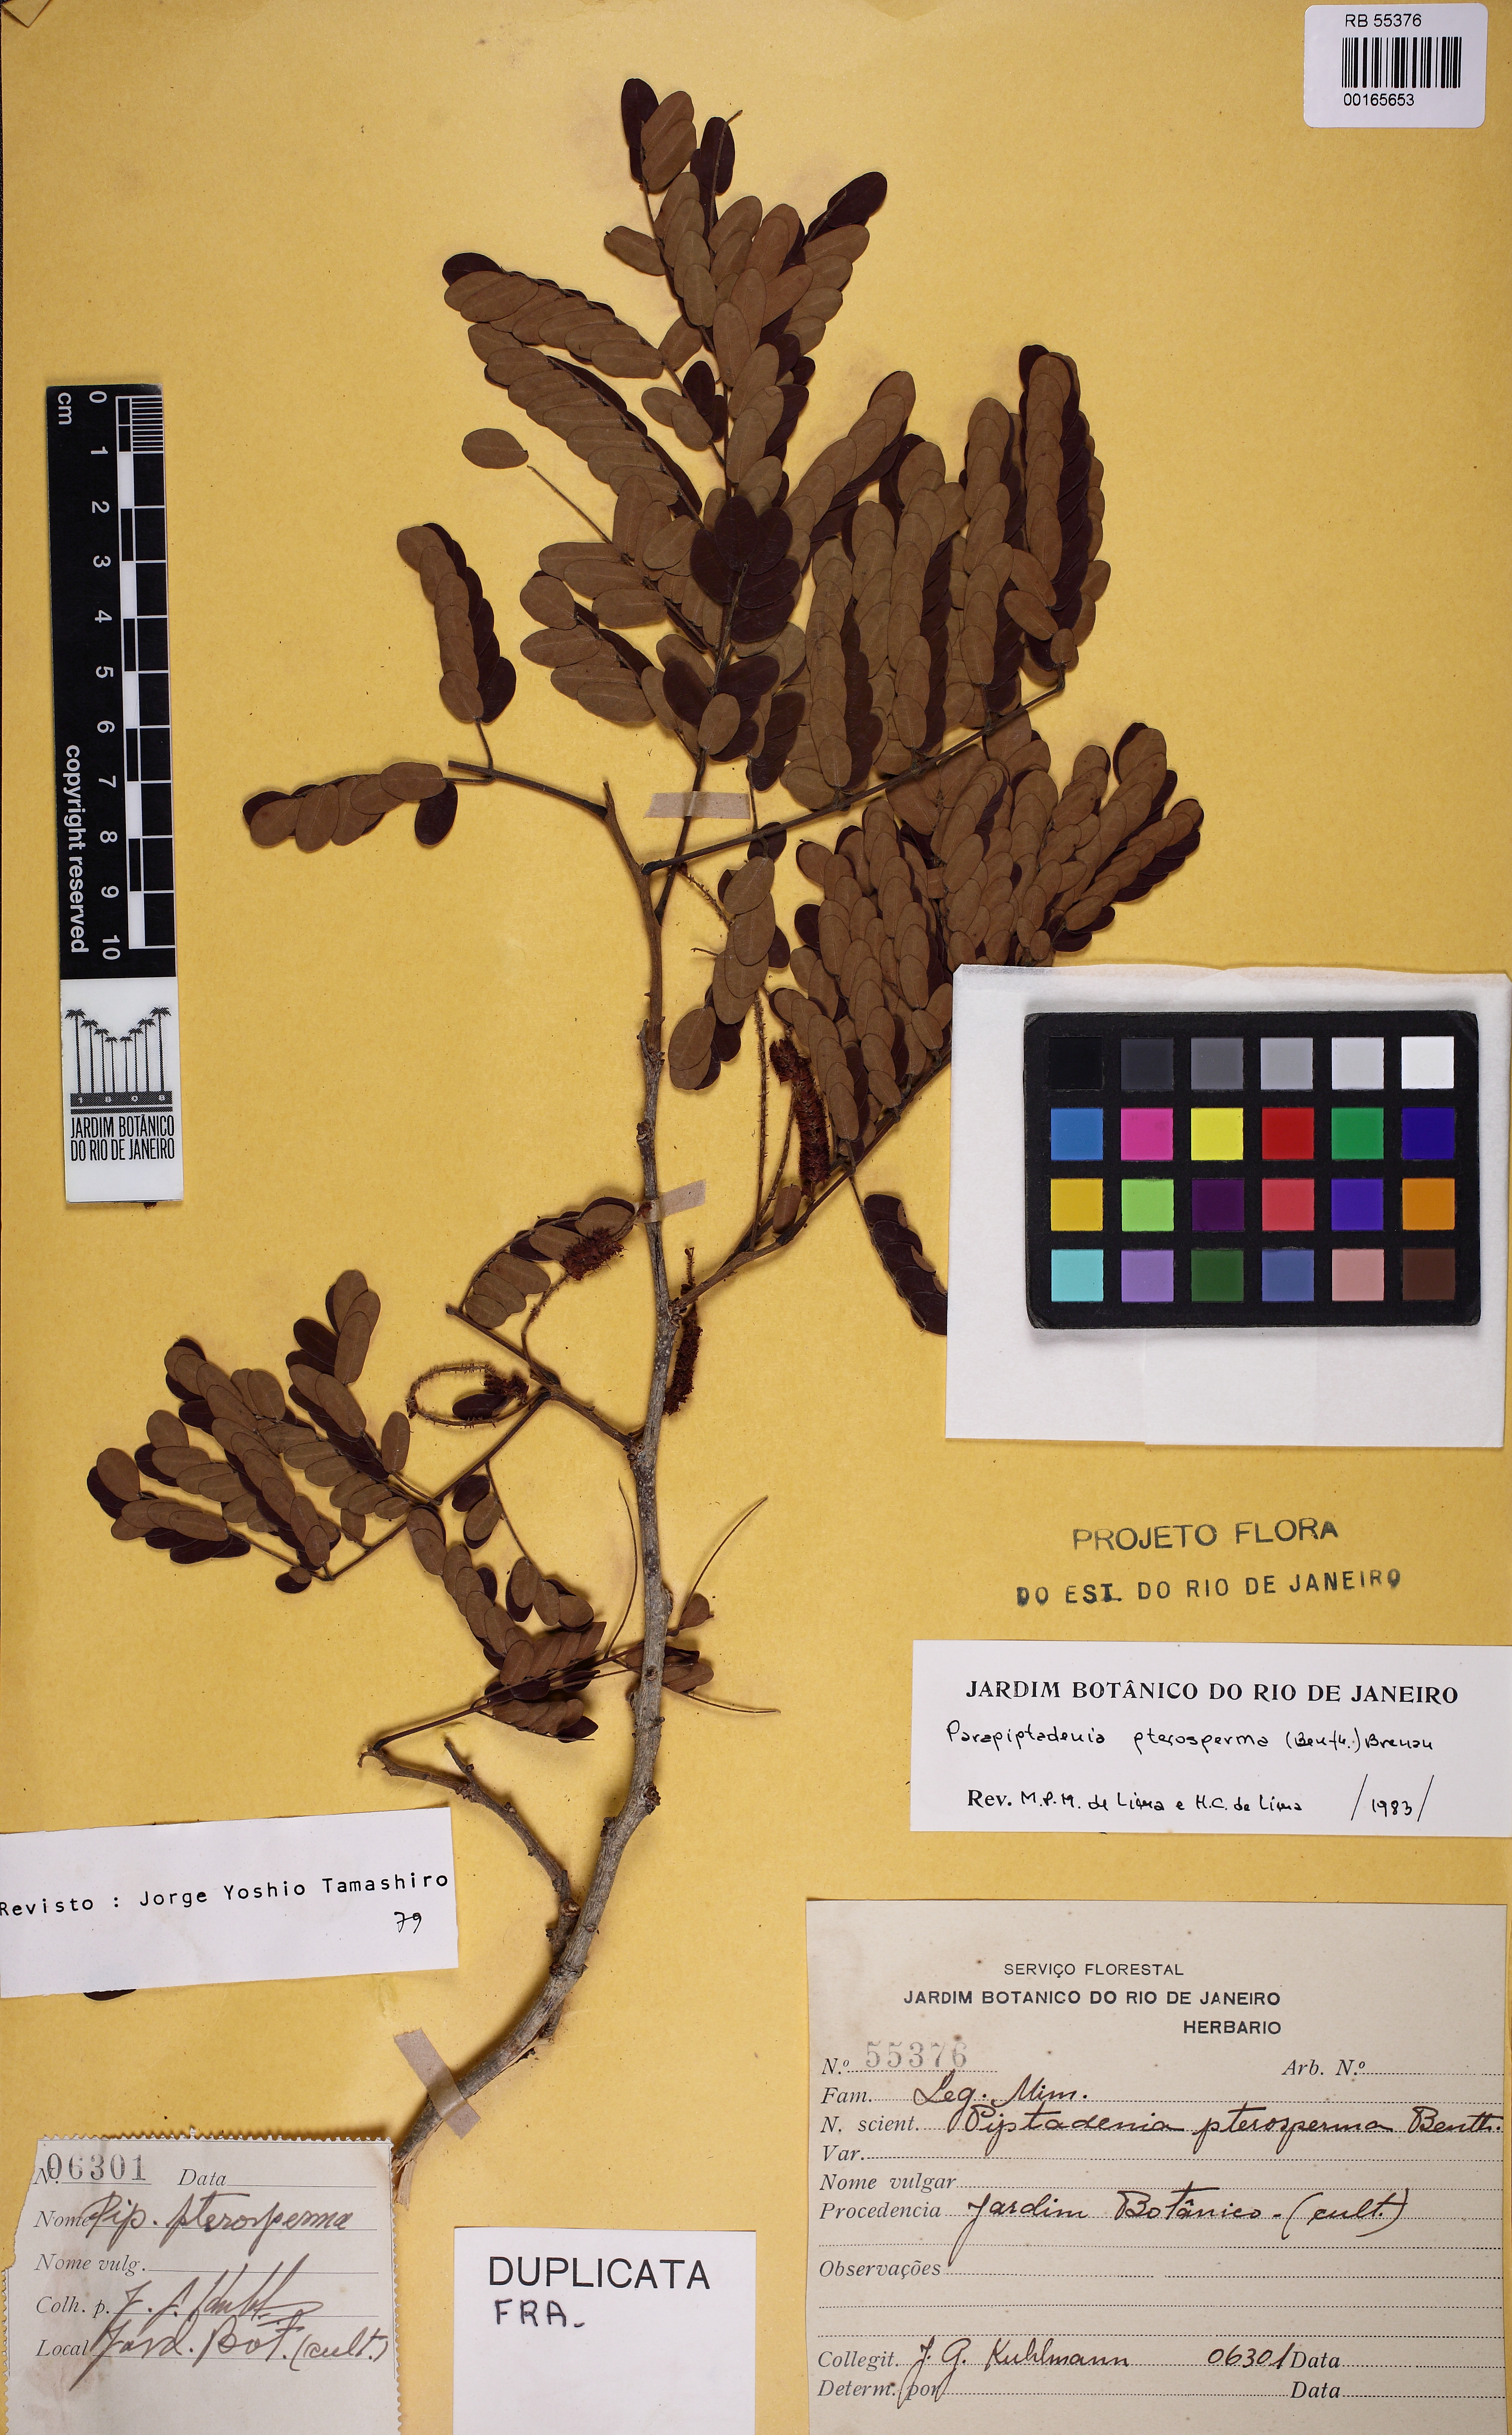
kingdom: Plantae
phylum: Tracheophyta
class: Magnoliopsida
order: Fabales
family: Fabaceae
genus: Parapiptadenia
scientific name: Parapiptadenia pterosperma
